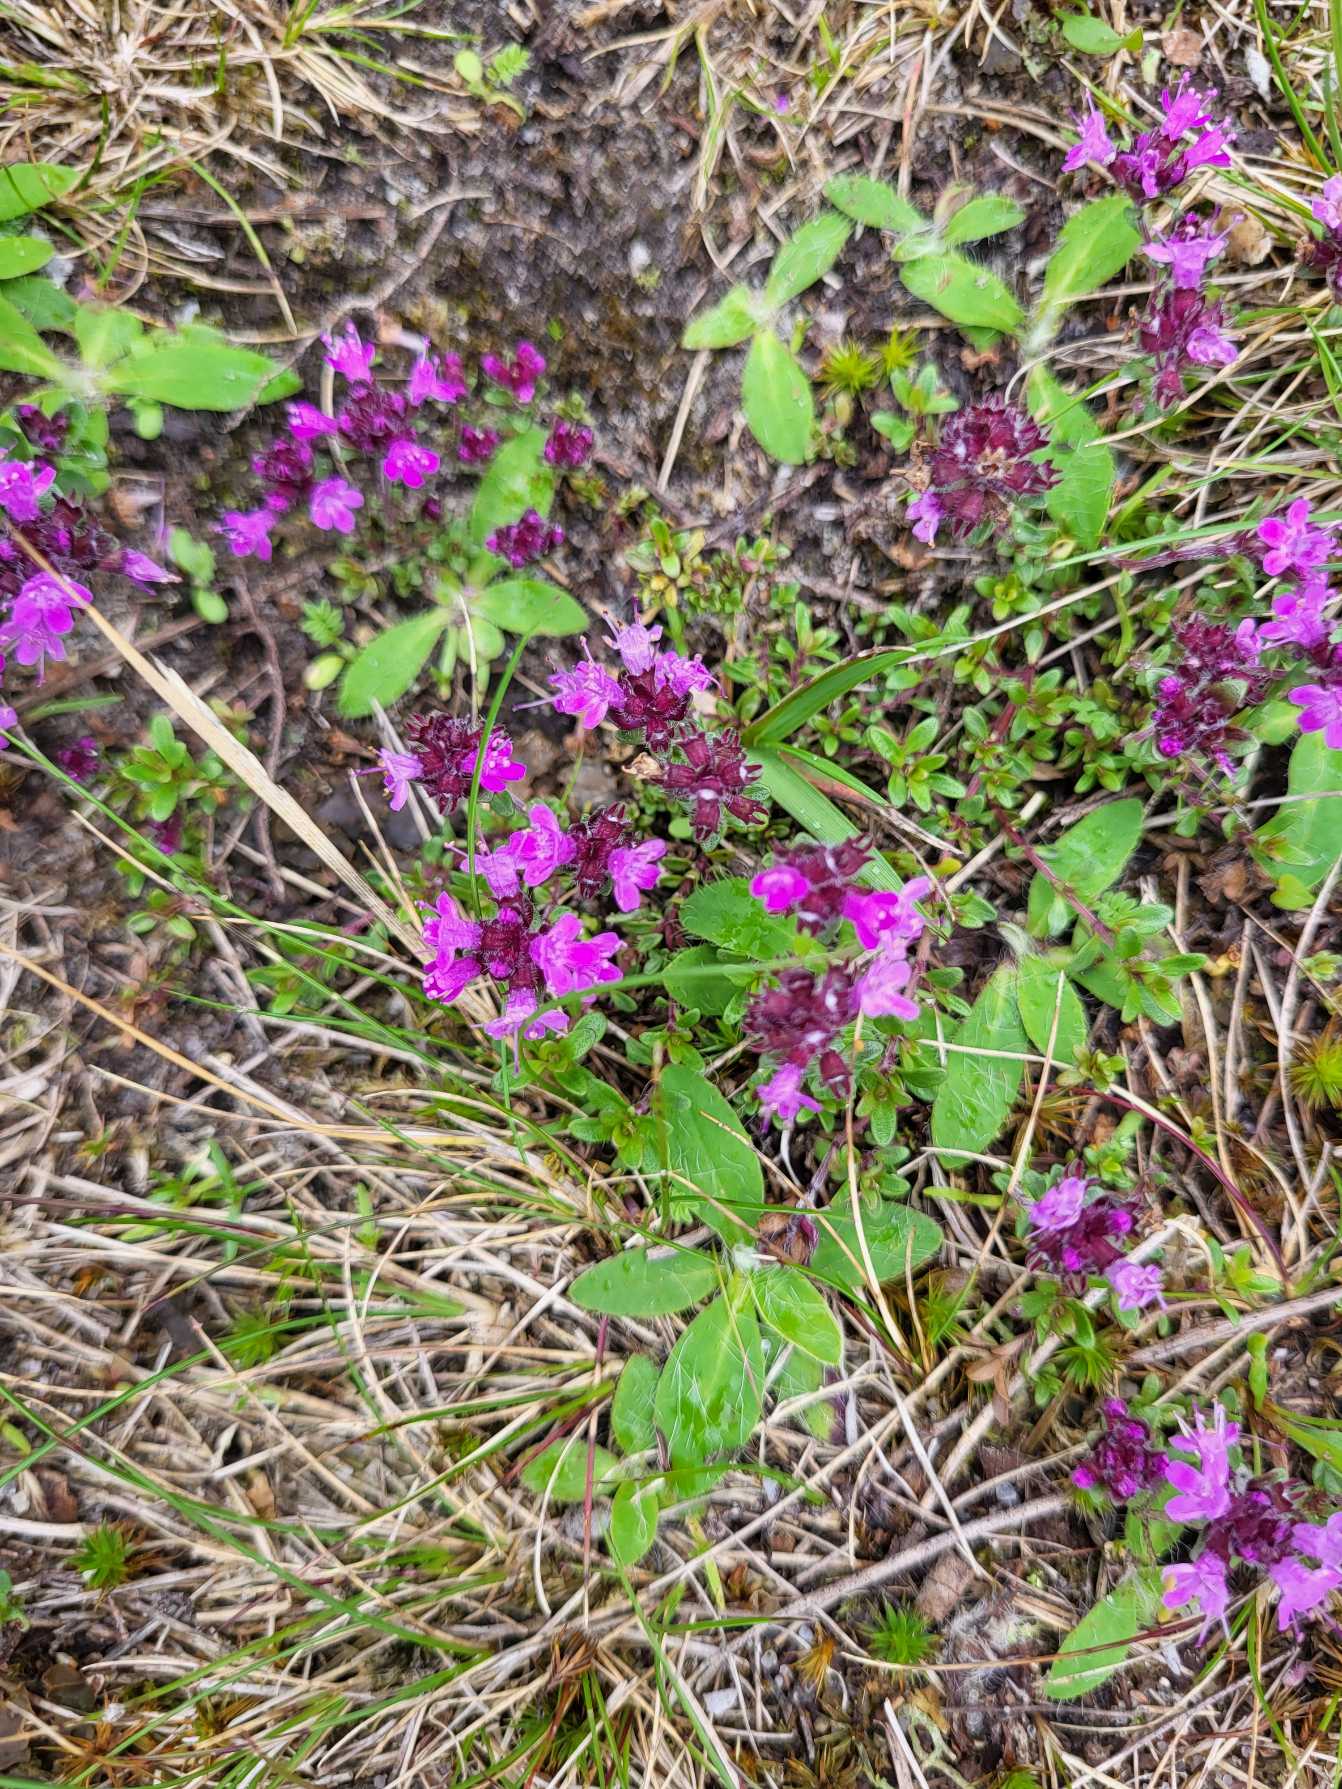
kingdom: Plantae
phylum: Tracheophyta
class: Magnoliopsida
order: Lamiales
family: Lamiaceae
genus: Thymus
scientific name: Thymus serpyllum
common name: Smalbladet timian
